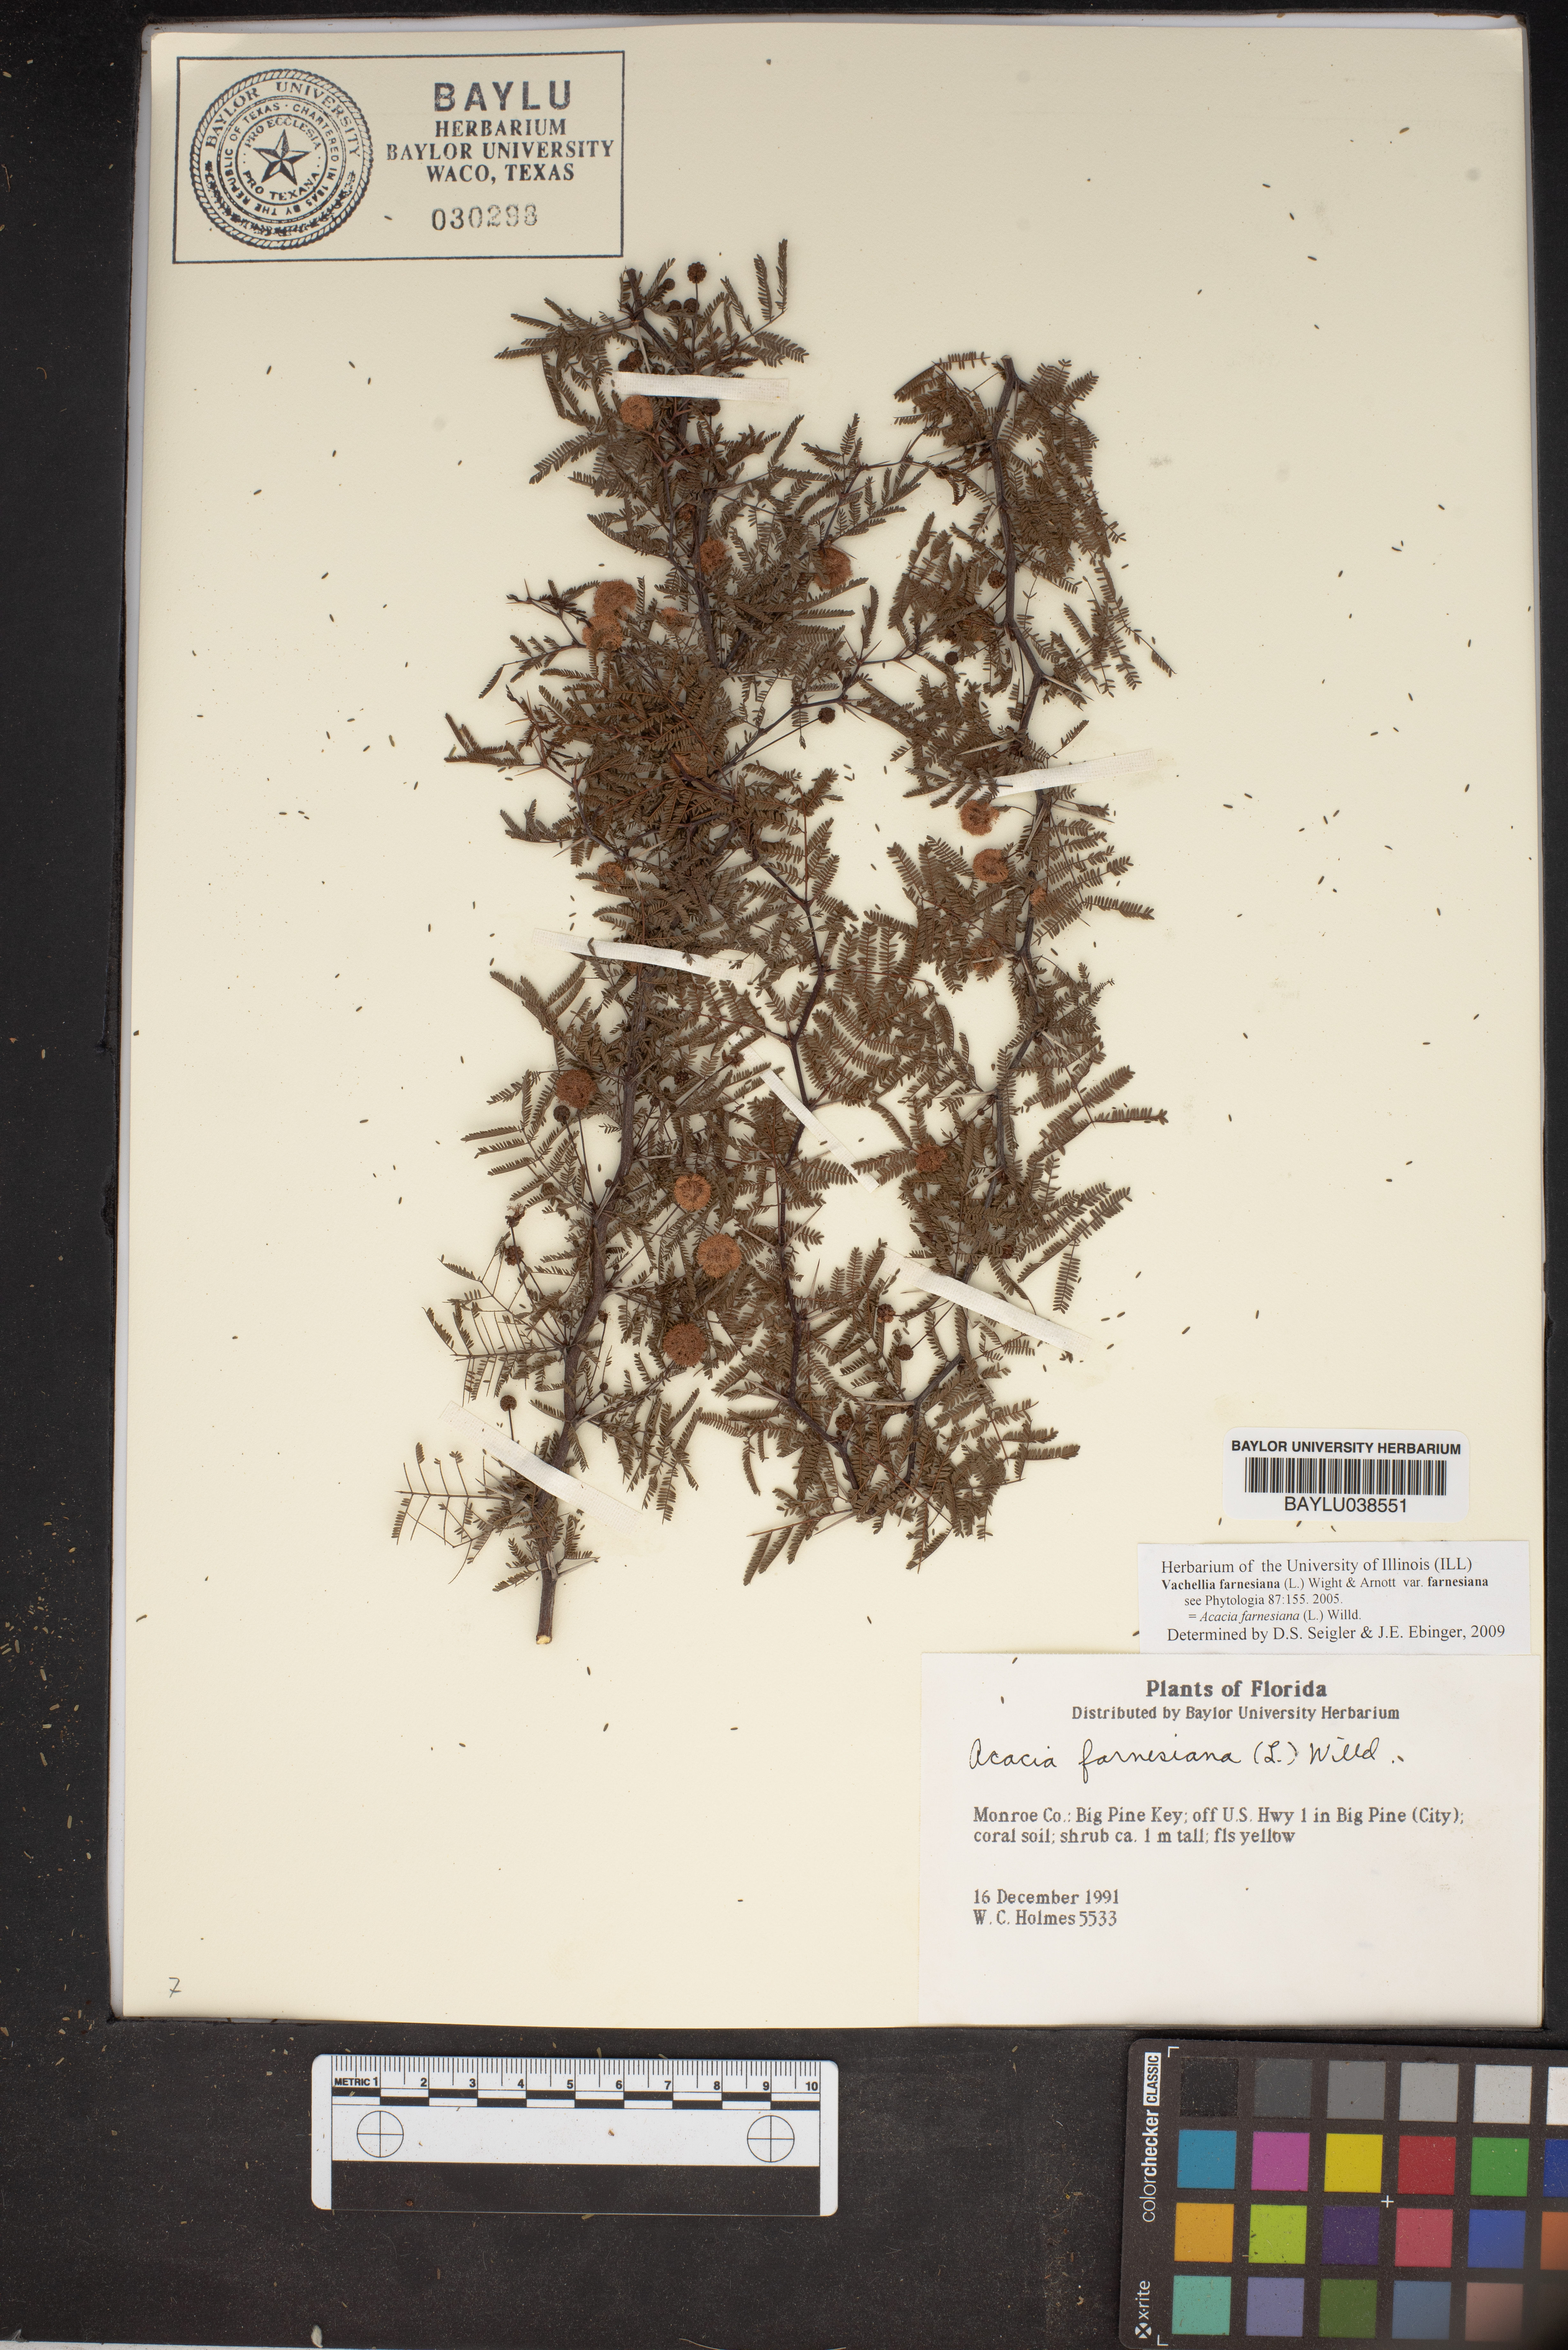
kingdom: Plantae
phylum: Tracheophyta
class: Magnoliopsida
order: Fabales
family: Fabaceae
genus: Vachellia
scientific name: Vachellia farnesiana
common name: Sweet acacia
